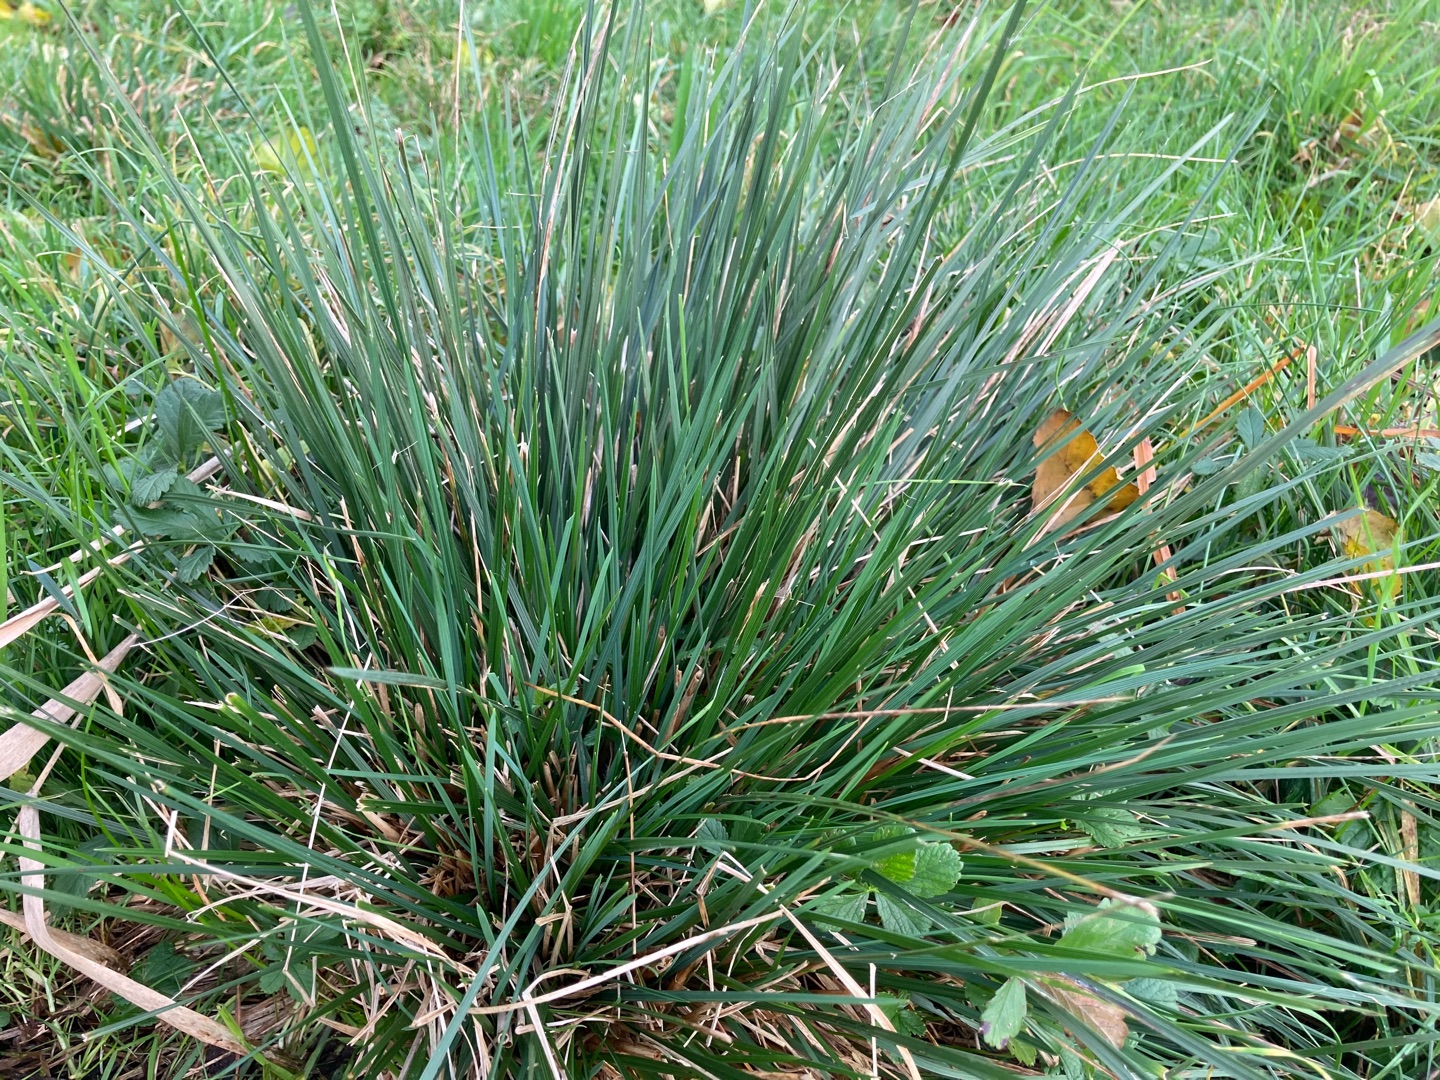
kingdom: Plantae
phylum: Tracheophyta
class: Liliopsida
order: Poales
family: Poaceae
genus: Deschampsia
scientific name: Deschampsia cespitosa
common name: Mose-bunke
